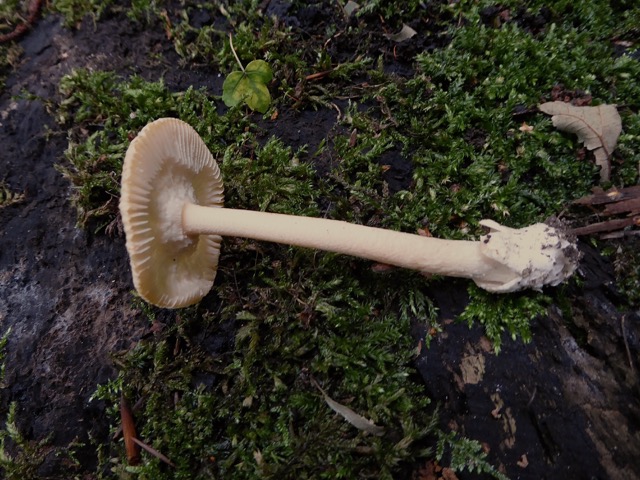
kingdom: Fungi
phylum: Basidiomycota
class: Agaricomycetes
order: Agaricales
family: Amanitaceae
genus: Amanita
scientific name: Amanita crocea
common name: gylden kam-fluesvamp
